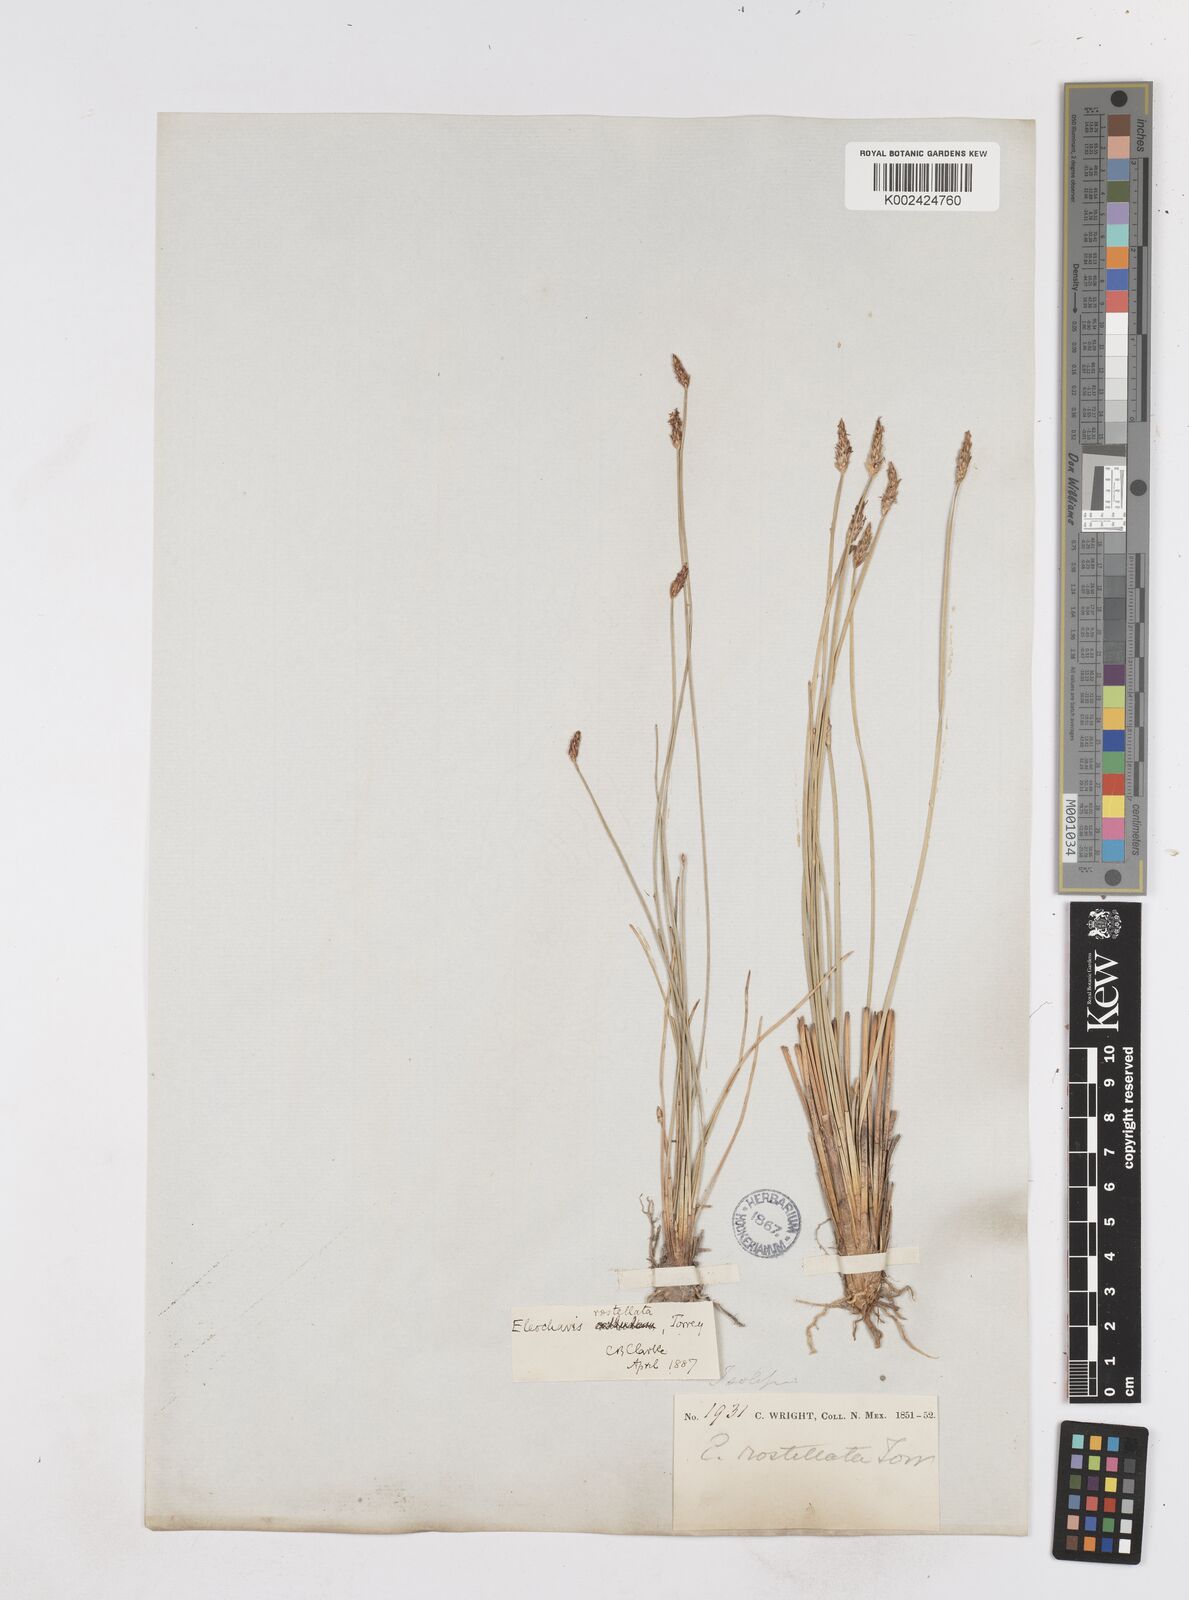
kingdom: Plantae
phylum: Tracheophyta
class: Liliopsida
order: Poales
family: Cyperaceae
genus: Eleocharis
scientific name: Eleocharis rostellata
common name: Walking sedge
